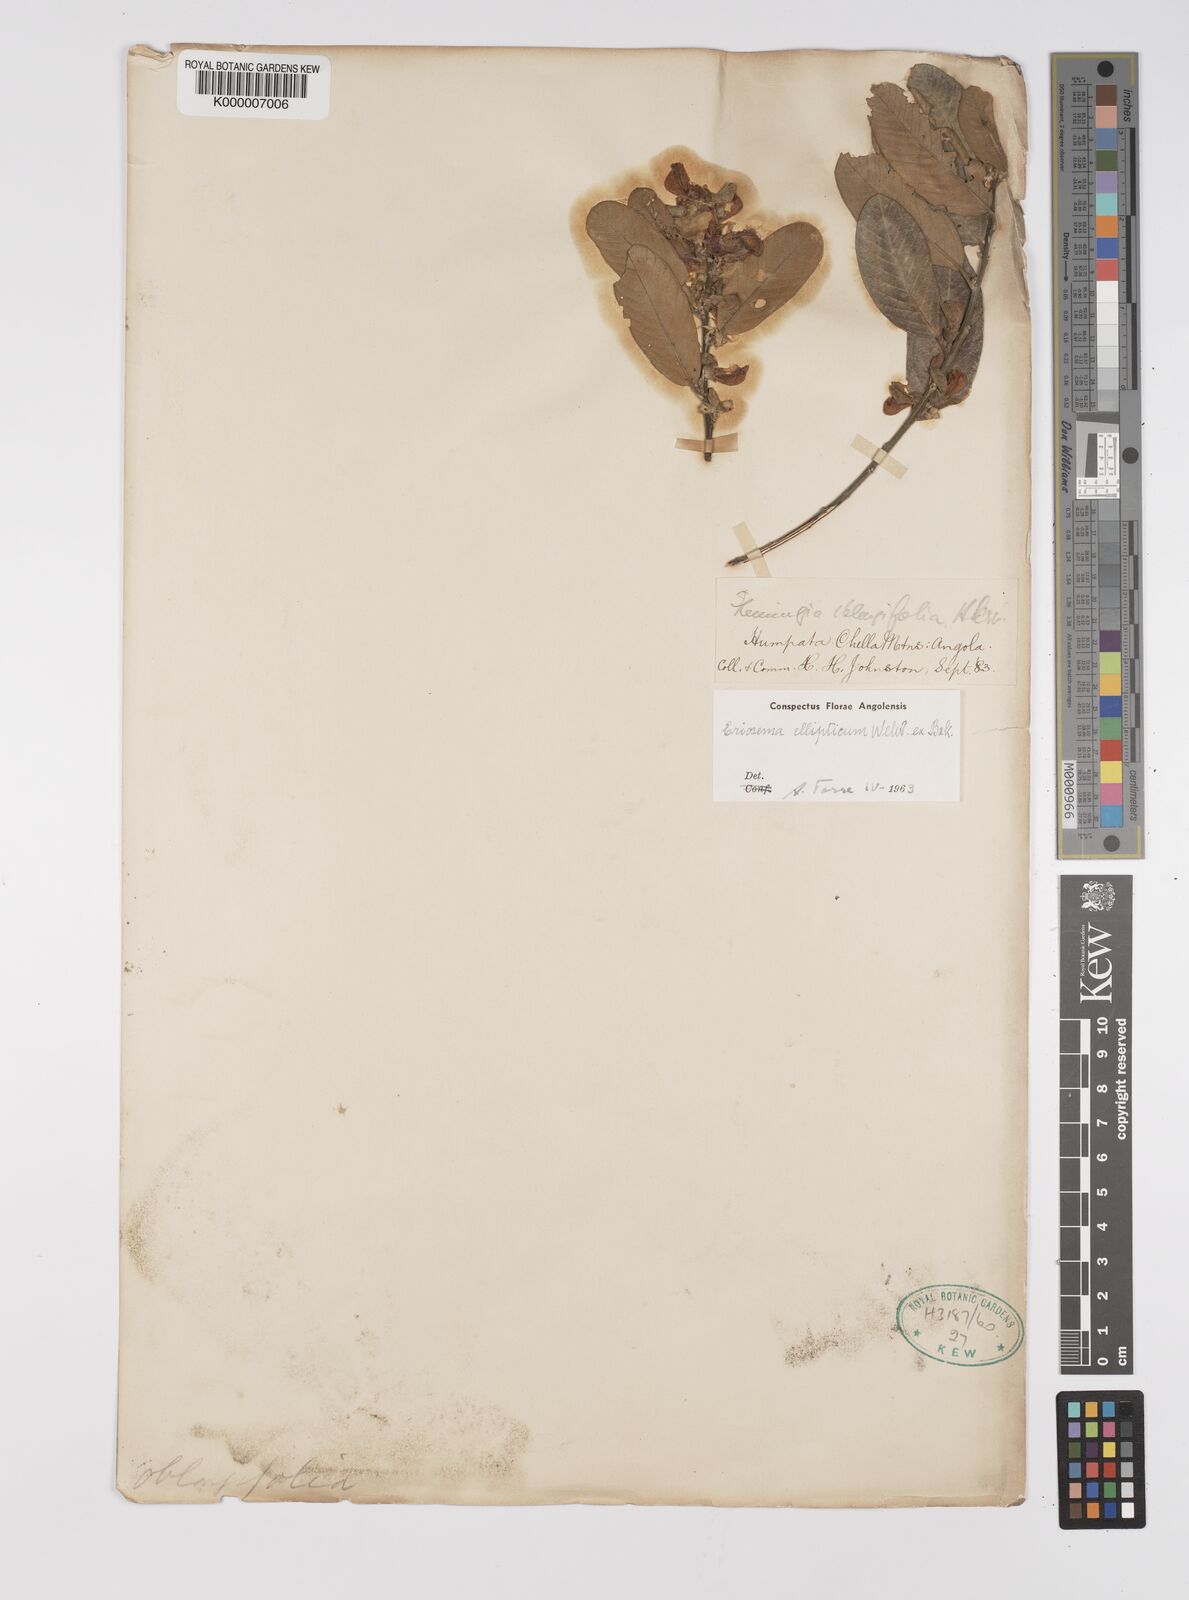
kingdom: Plantae
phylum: Tracheophyta
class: Magnoliopsida
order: Fabales
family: Fabaceae
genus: Eriosema
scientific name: Eriosema ellipticum
